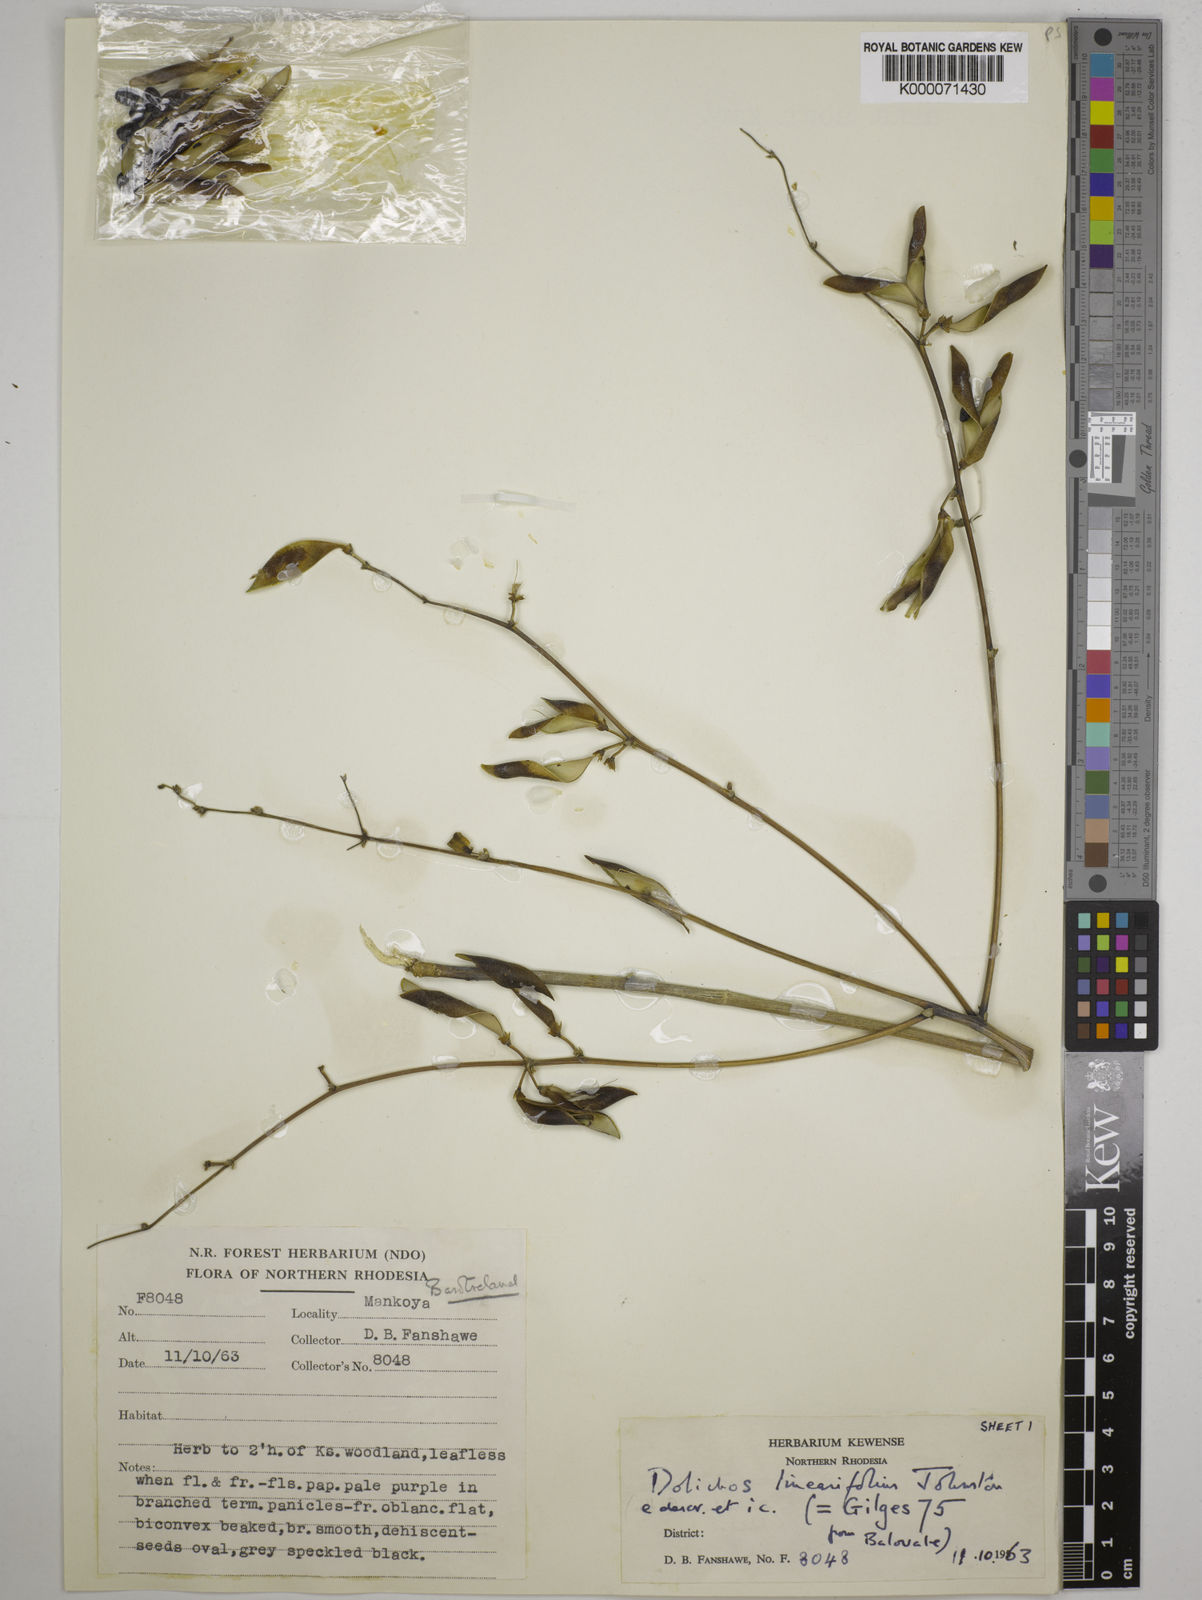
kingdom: Plantae
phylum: Tracheophyta
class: Magnoliopsida
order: Fabales
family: Fabaceae
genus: Dolichos
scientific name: Dolichos linearifolius
